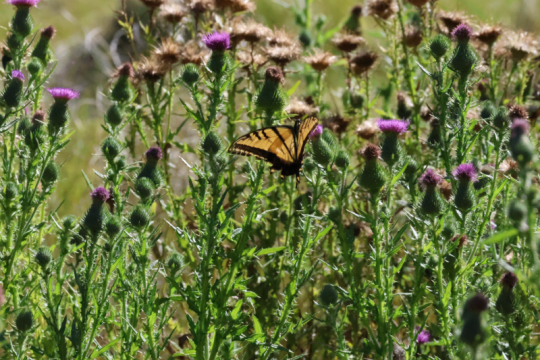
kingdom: Animalia
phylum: Arthropoda
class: Insecta
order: Lepidoptera
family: Papilionidae
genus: Papilio
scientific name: Papilio multicaudata
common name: Two-tailed Swallowtail
